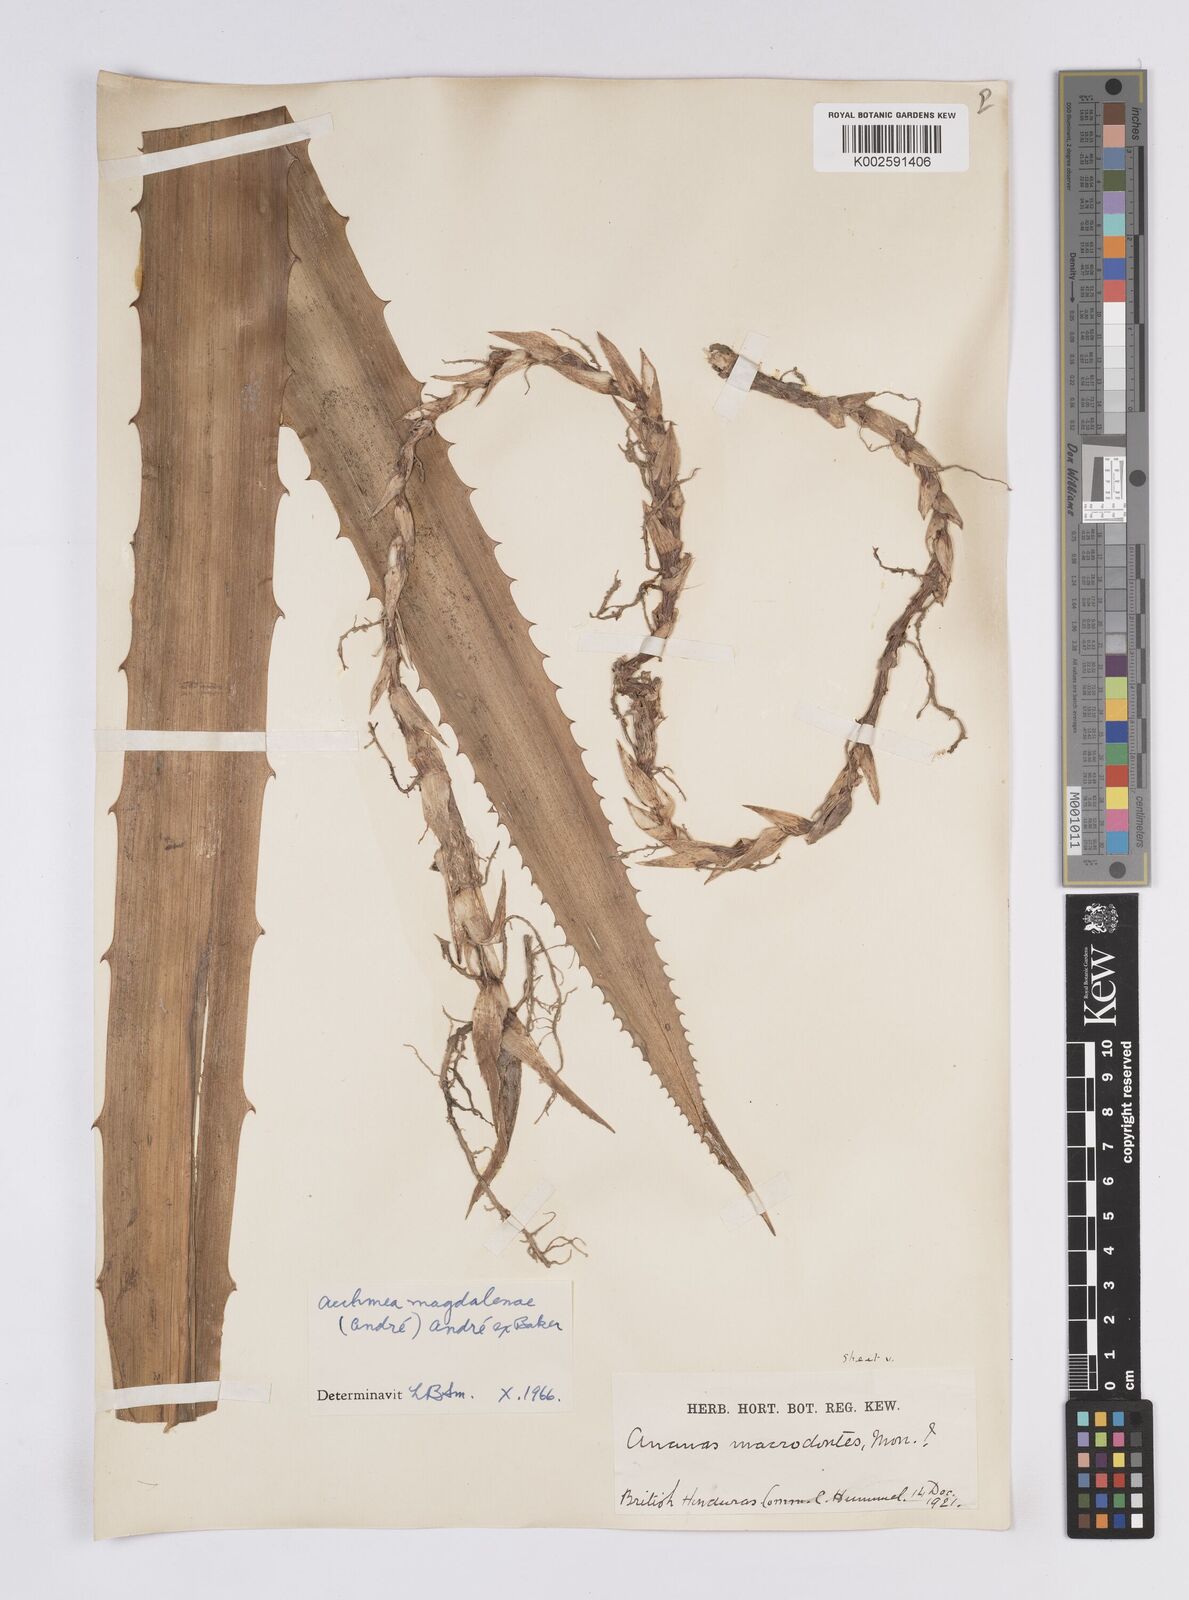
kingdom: Plantae
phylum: Tracheophyta
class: Liliopsida
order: Poales
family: Bromeliaceae
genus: Aechmea
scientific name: Aechmea magdalenae
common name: Arghan
